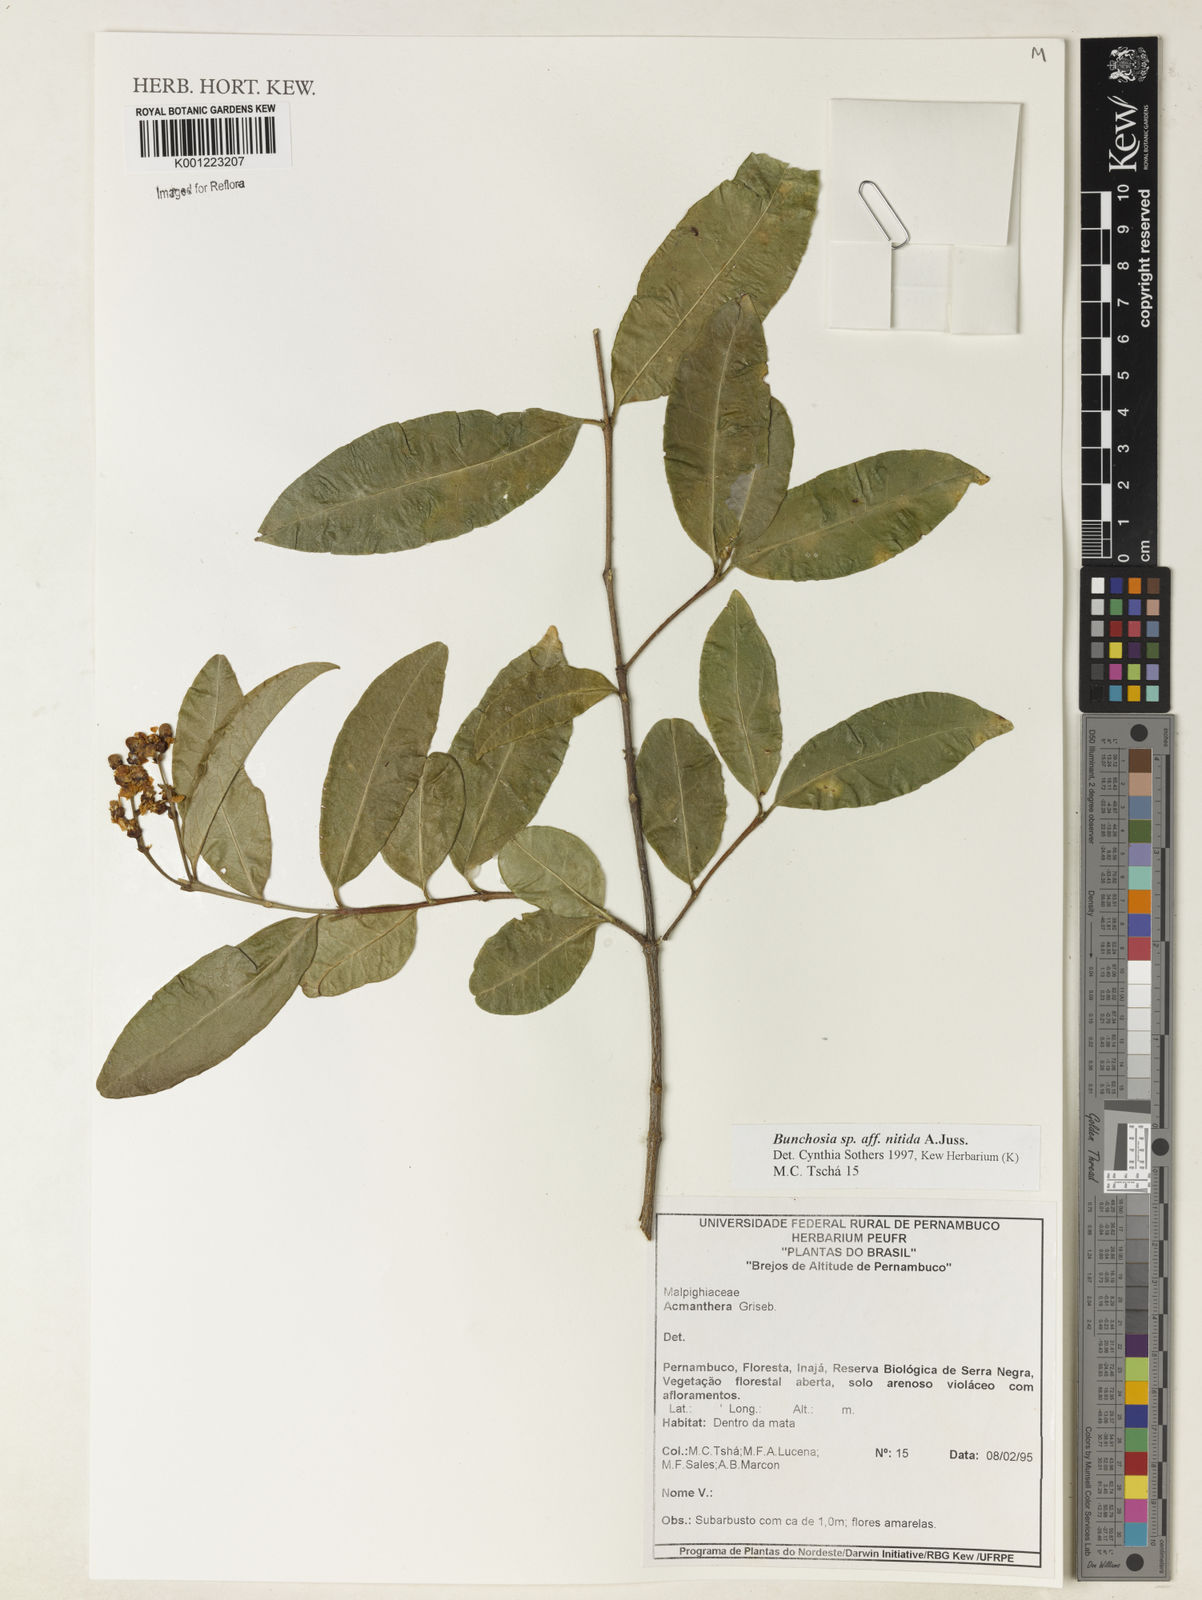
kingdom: Plantae
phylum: Tracheophyta
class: Magnoliopsida
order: Malpighiales
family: Malpighiaceae
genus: Bunchosia
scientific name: Bunchosia
